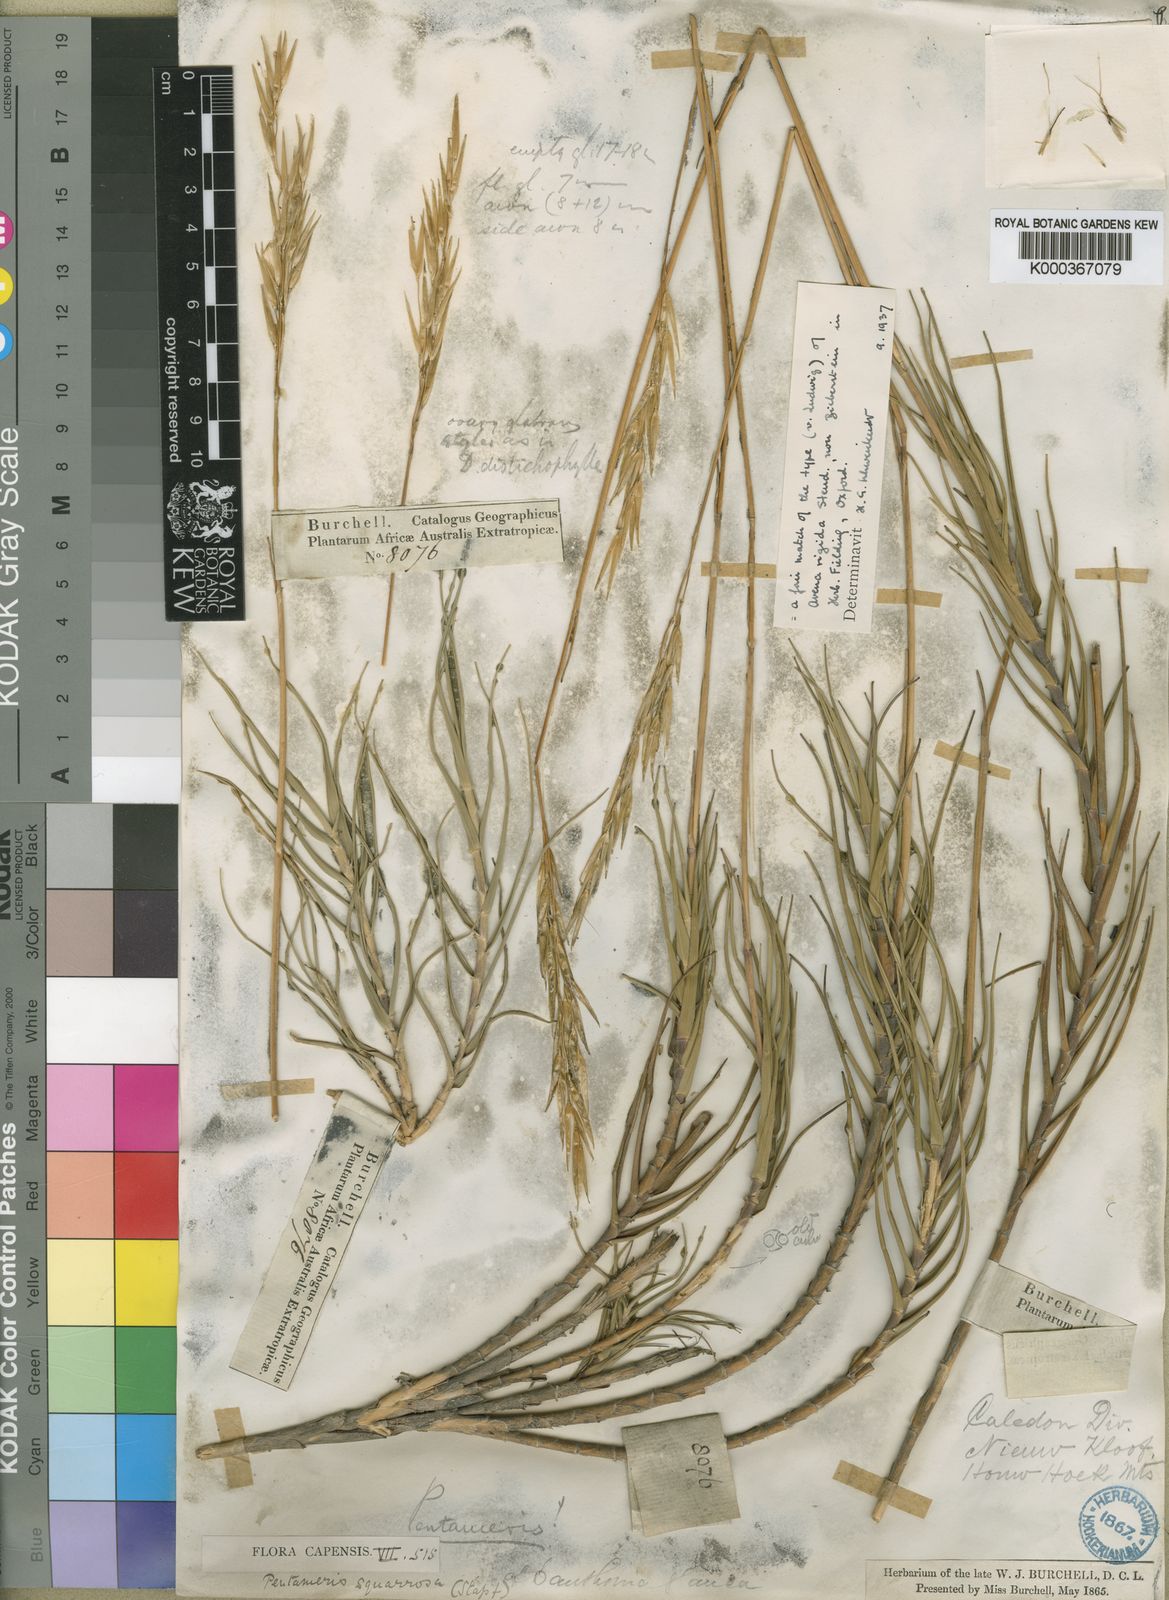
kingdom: Plantae
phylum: Tracheophyta
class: Liliopsida
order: Poales
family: Poaceae
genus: Pseudopentameris
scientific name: Pseudopentameris obtusifolia
